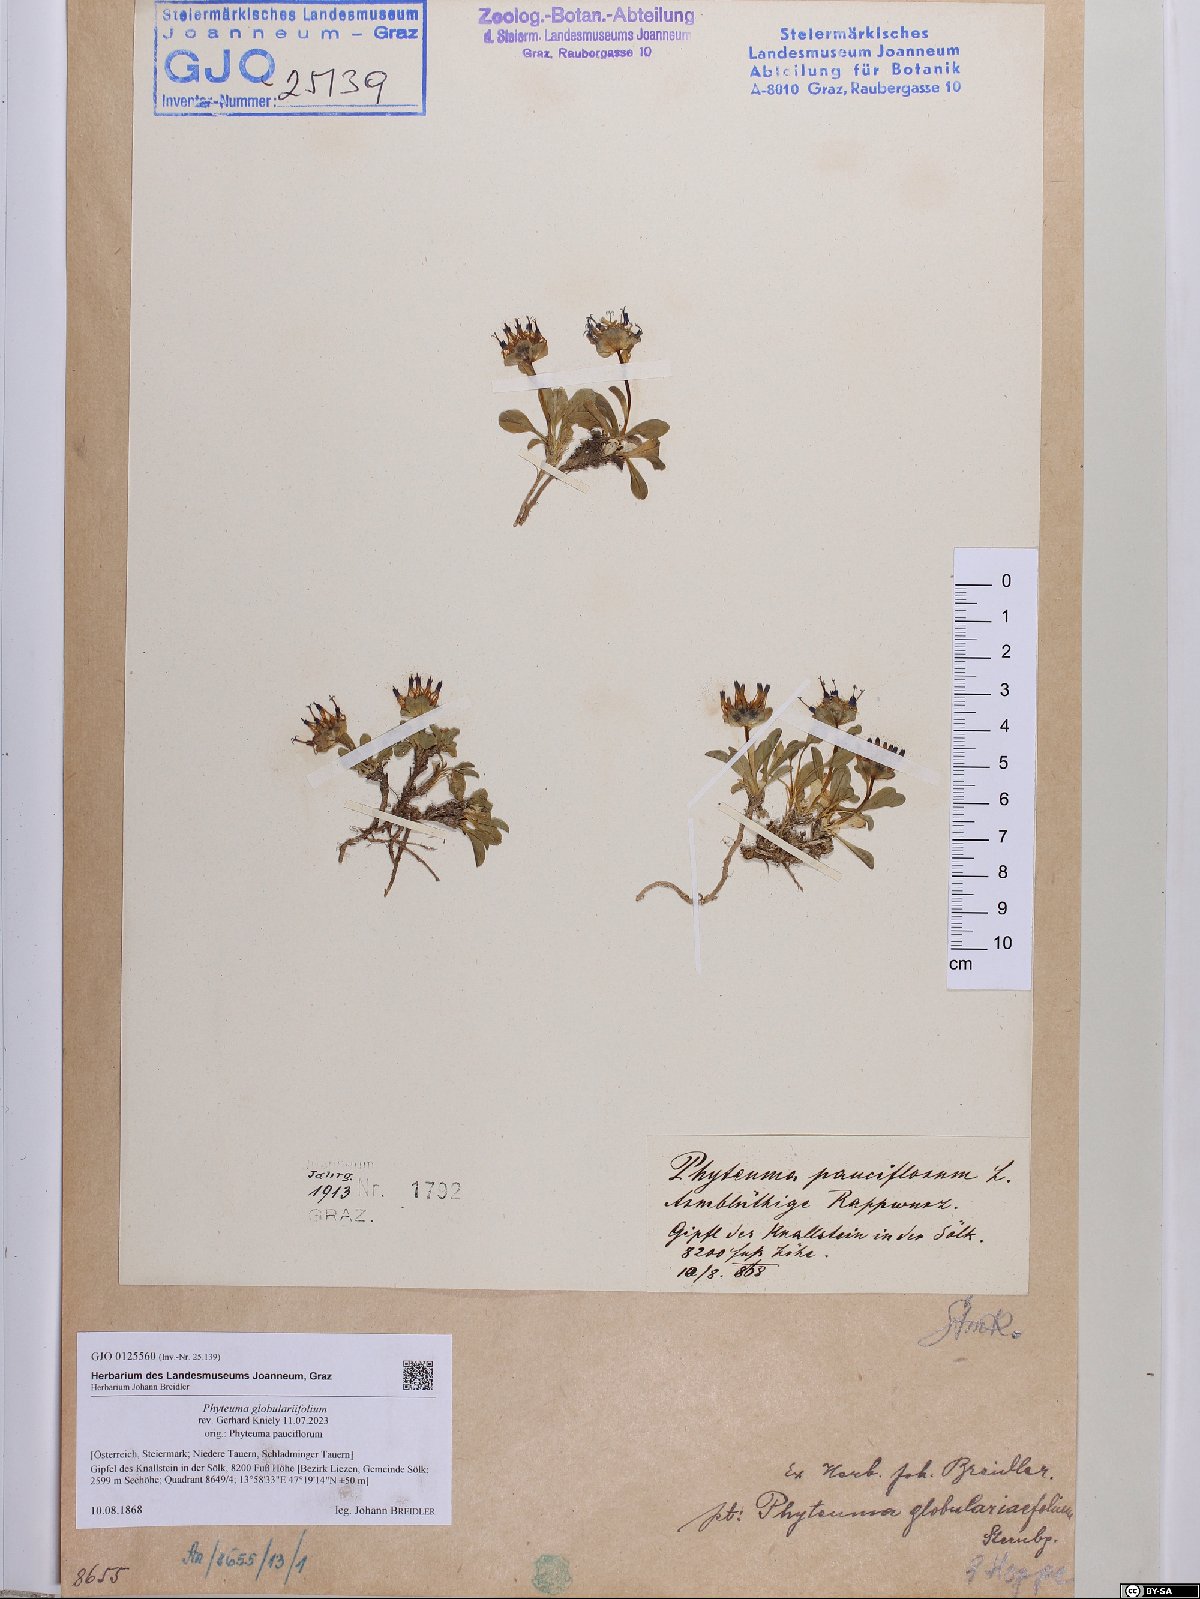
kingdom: Plantae
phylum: Tracheophyta
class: Magnoliopsida
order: Asterales
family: Campanulaceae
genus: Phyteuma
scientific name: Phyteuma globulariifolium
